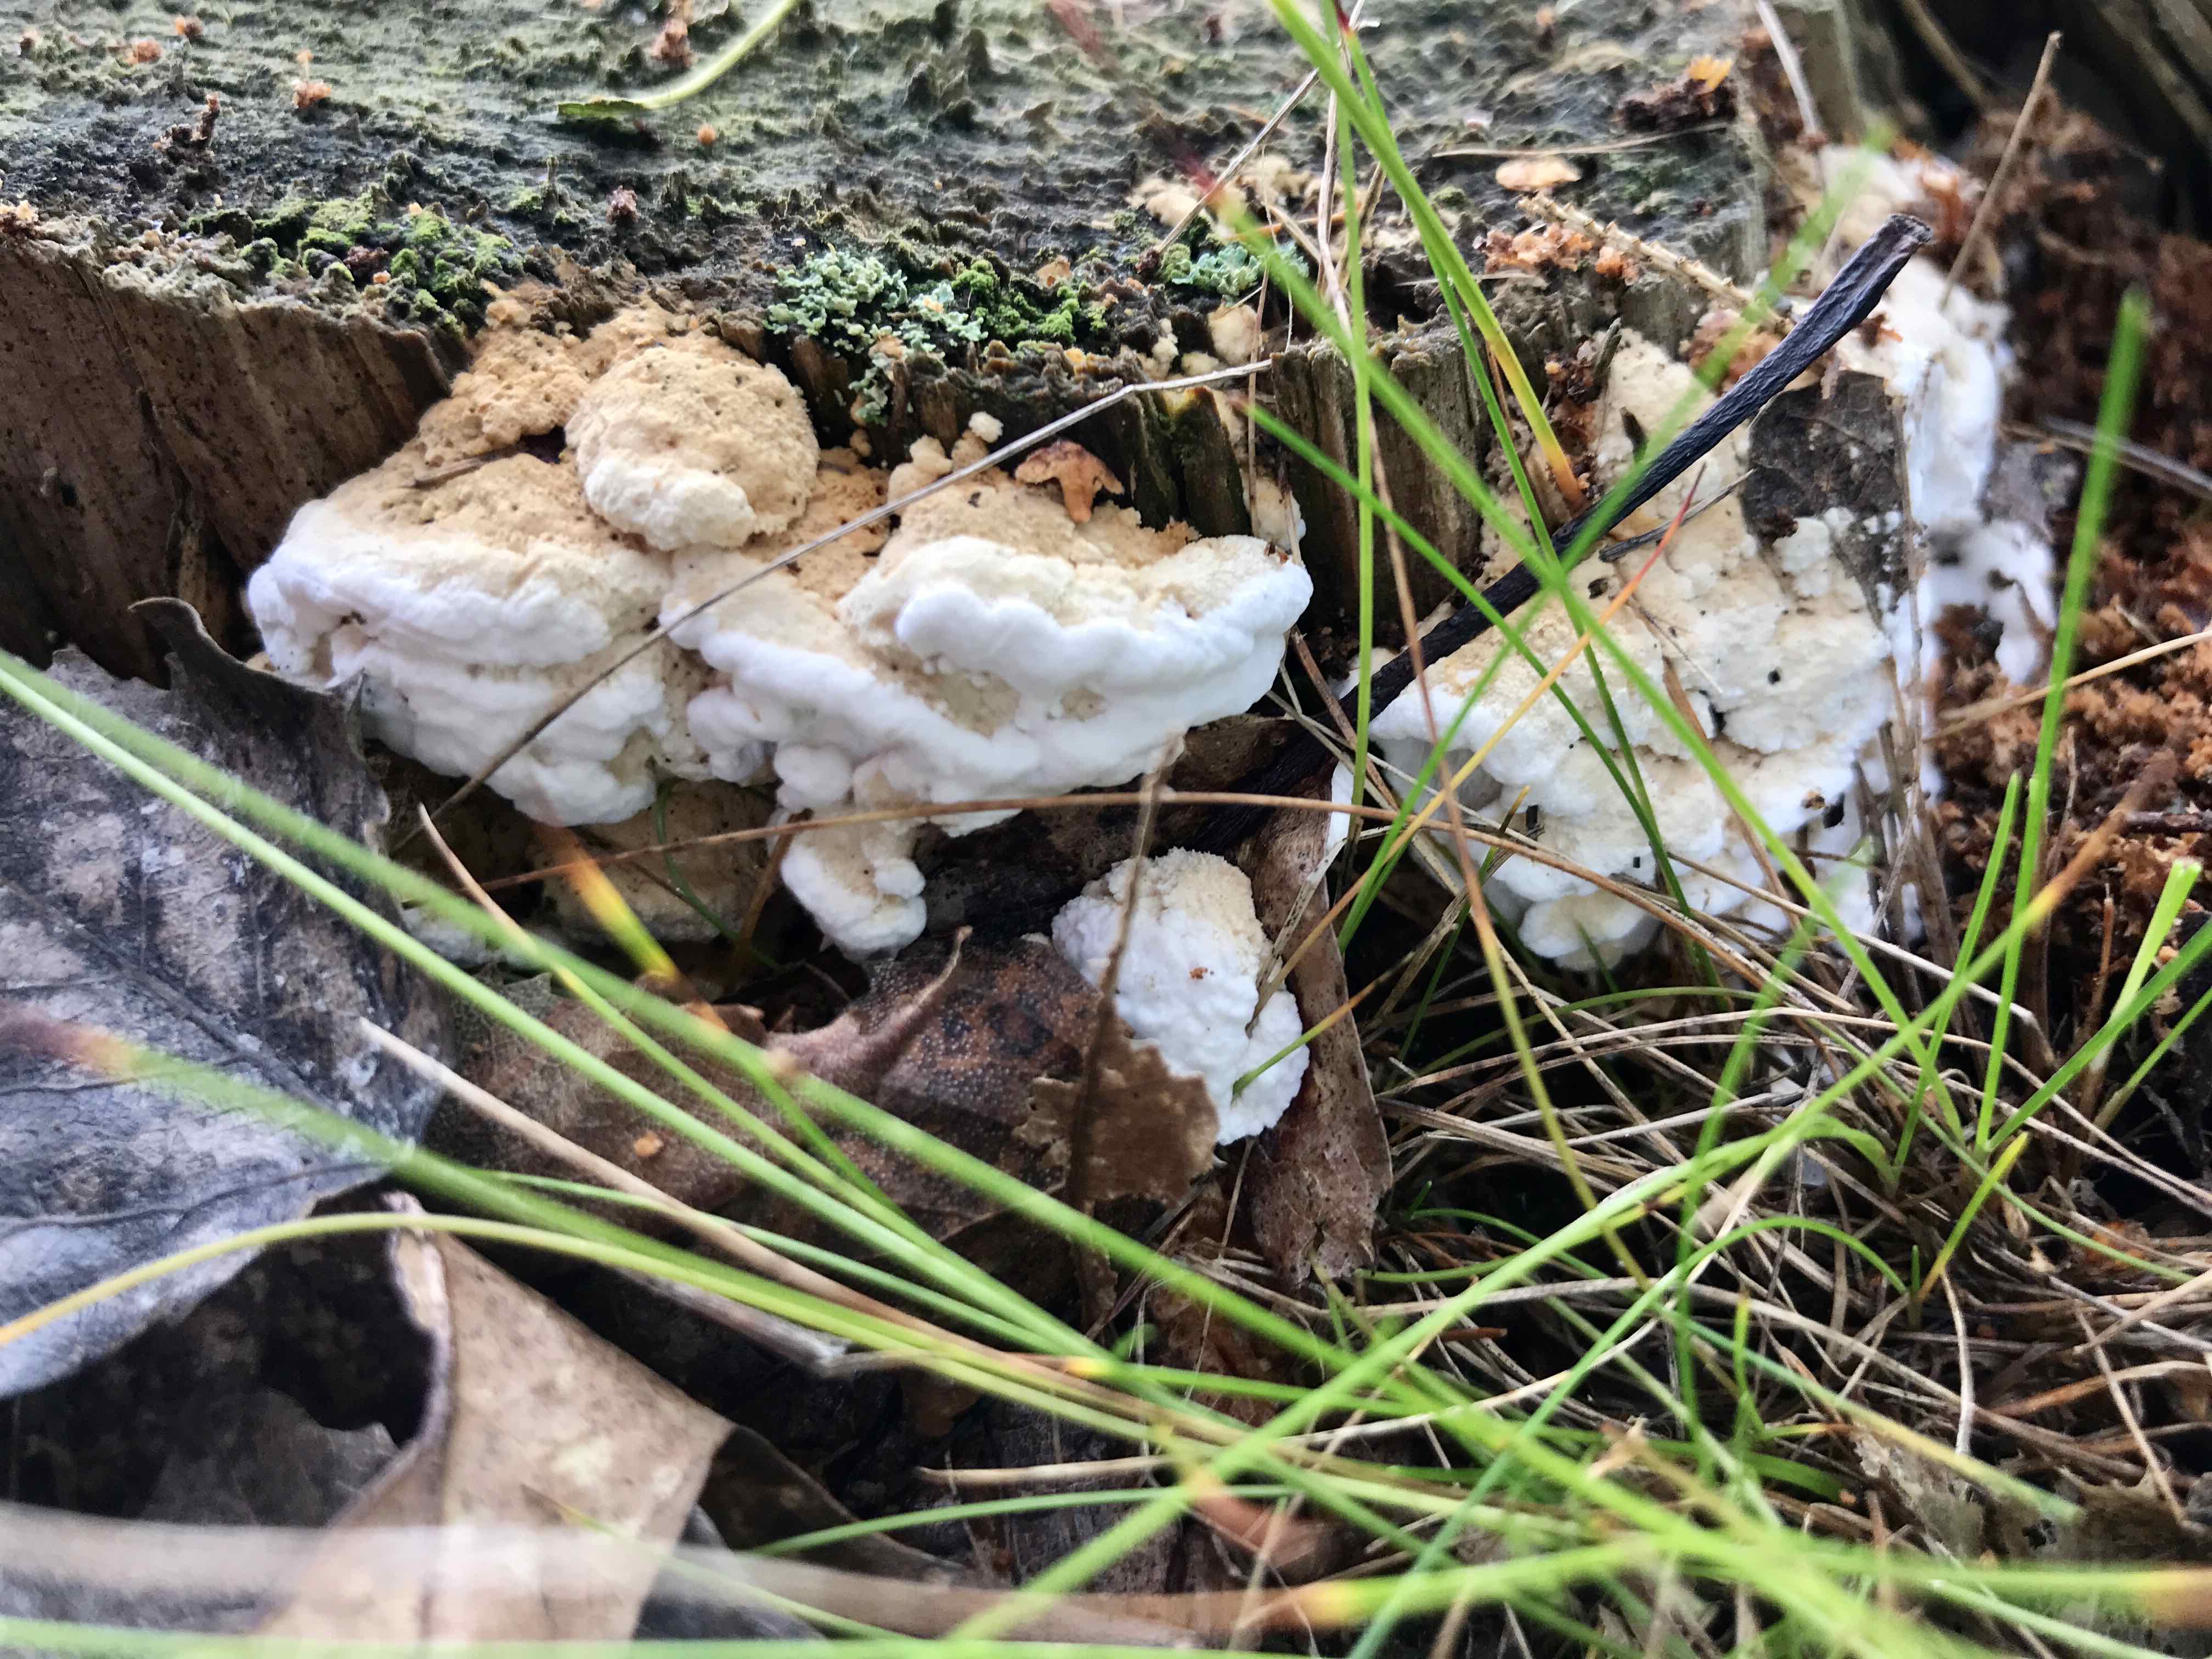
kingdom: Fungi
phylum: Basidiomycota
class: Agaricomycetes
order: Polyporales
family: Fomitopsidaceae
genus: Neoantrodia
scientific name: Neoantrodia serialis
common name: række-sejporesvamp
